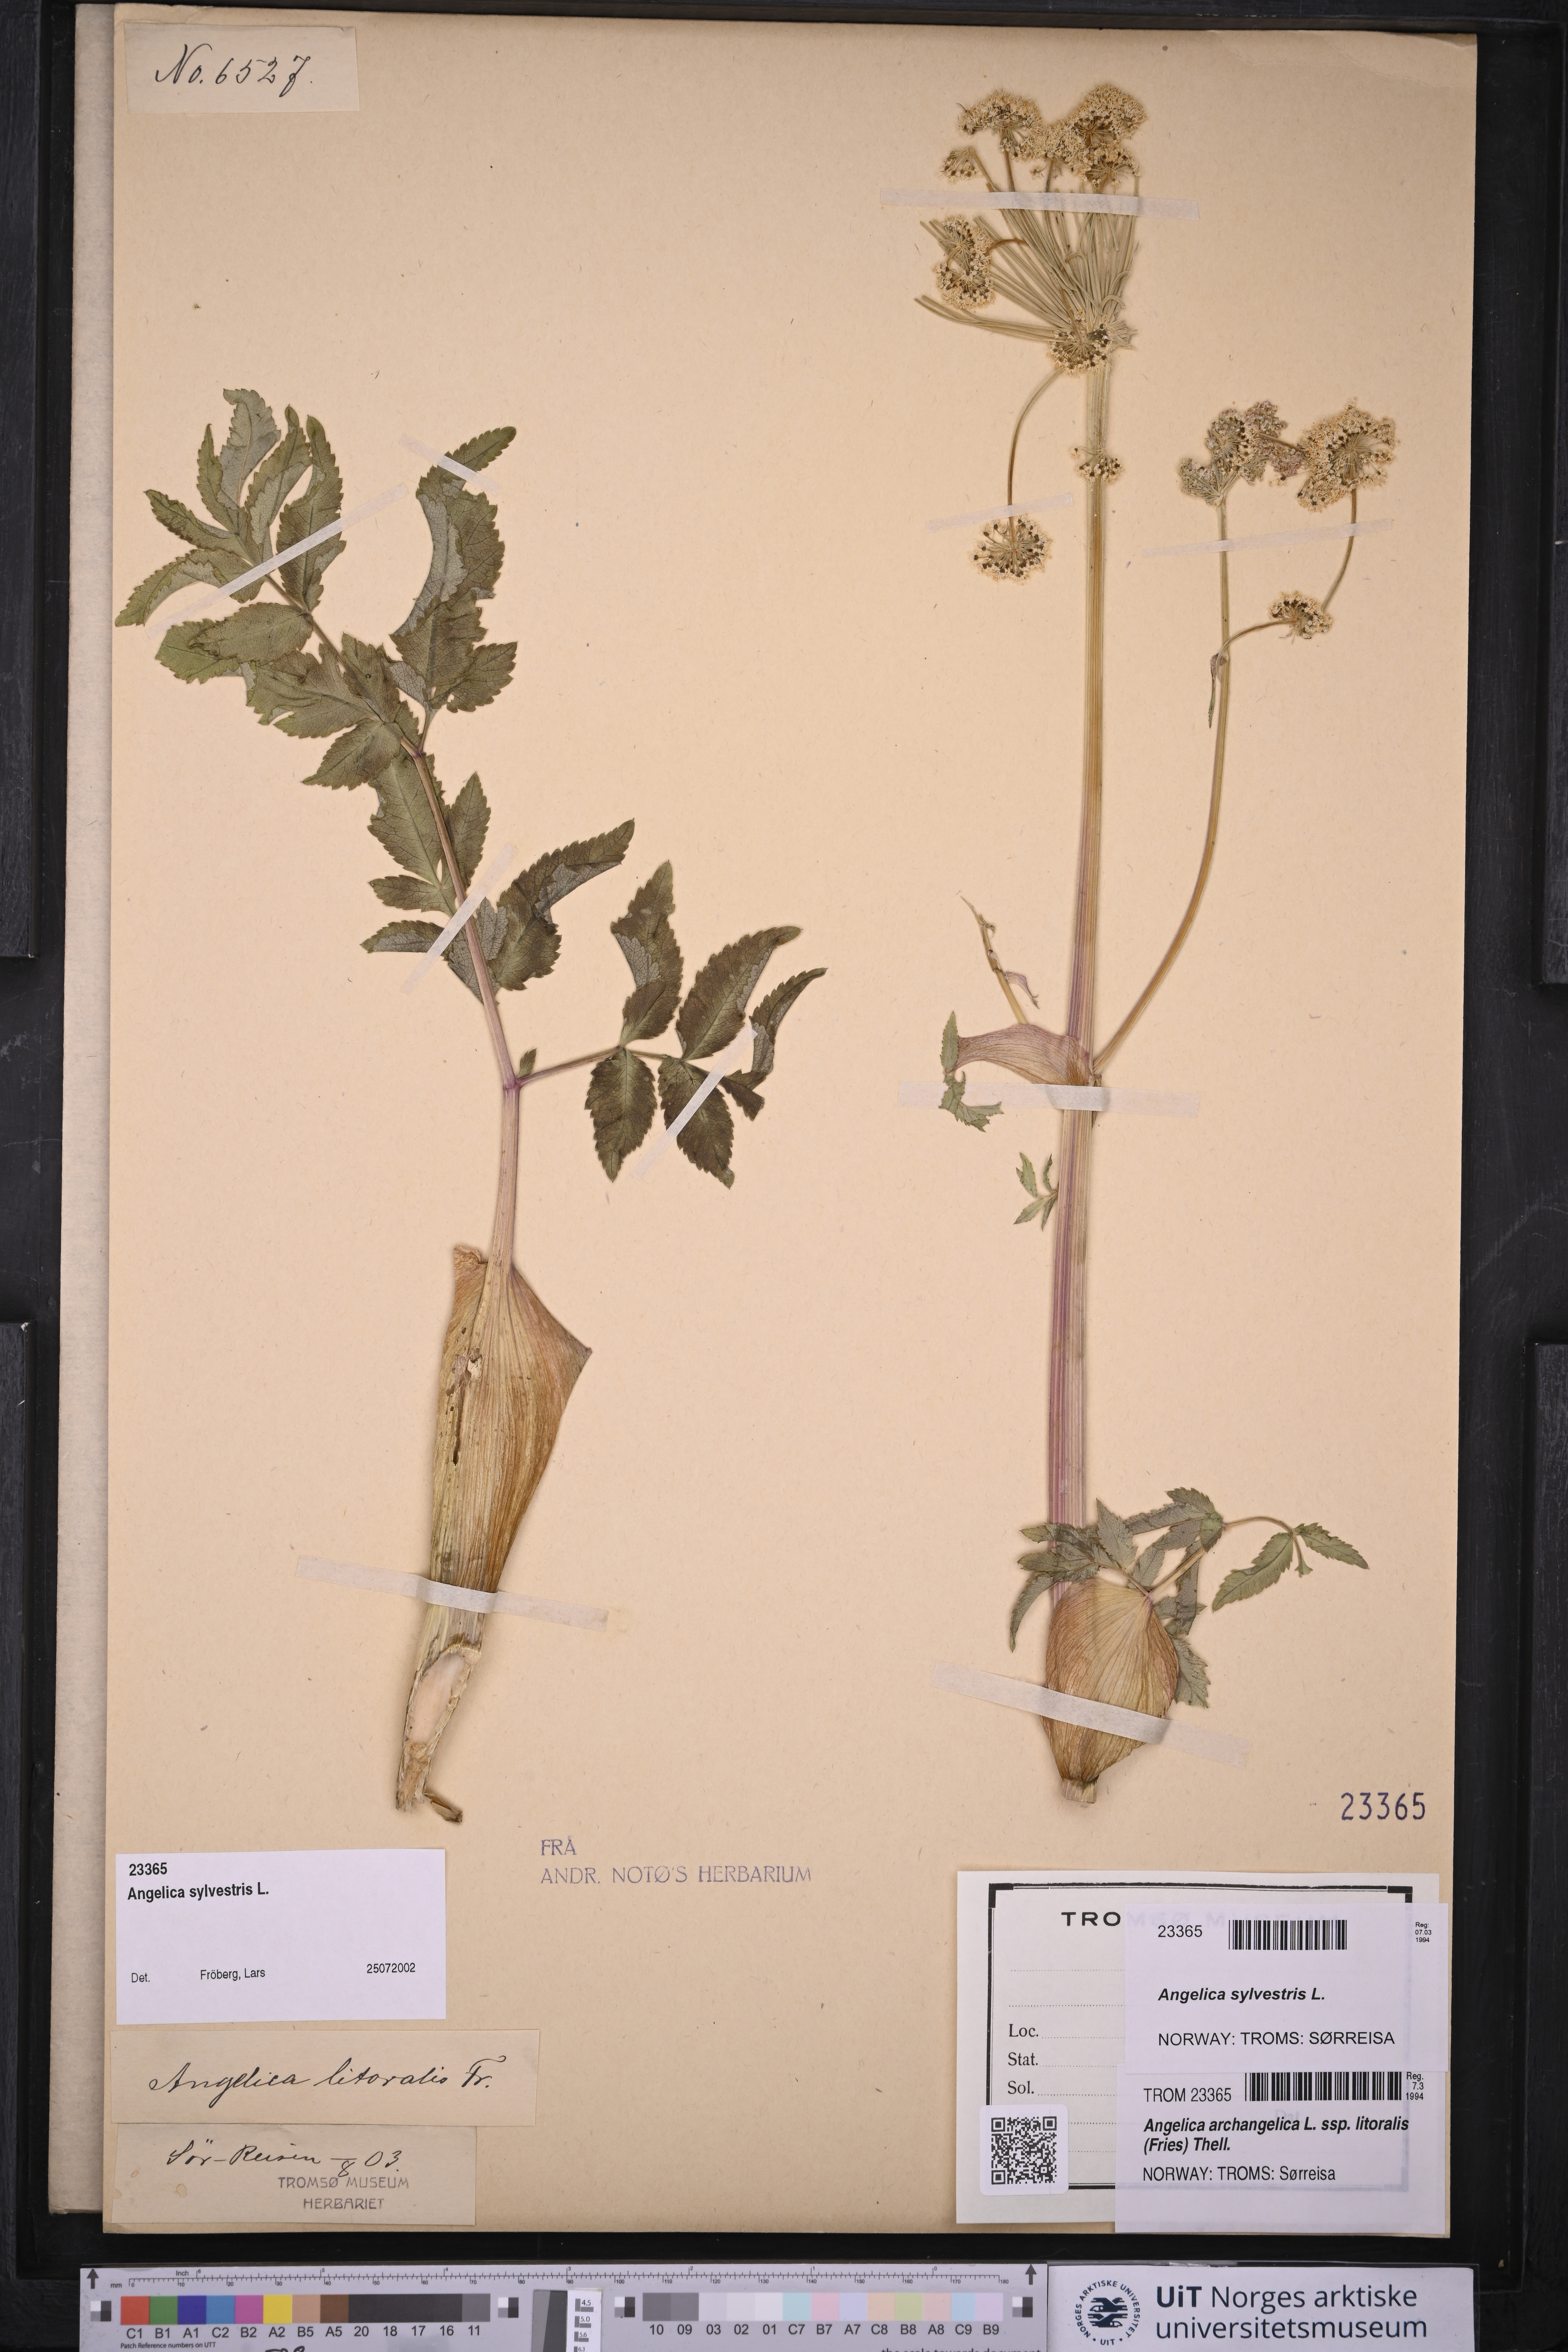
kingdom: Plantae
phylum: Tracheophyta
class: Magnoliopsida
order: Apiales
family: Apiaceae
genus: Angelica
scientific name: Angelica sylvestris
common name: Wild angelica
